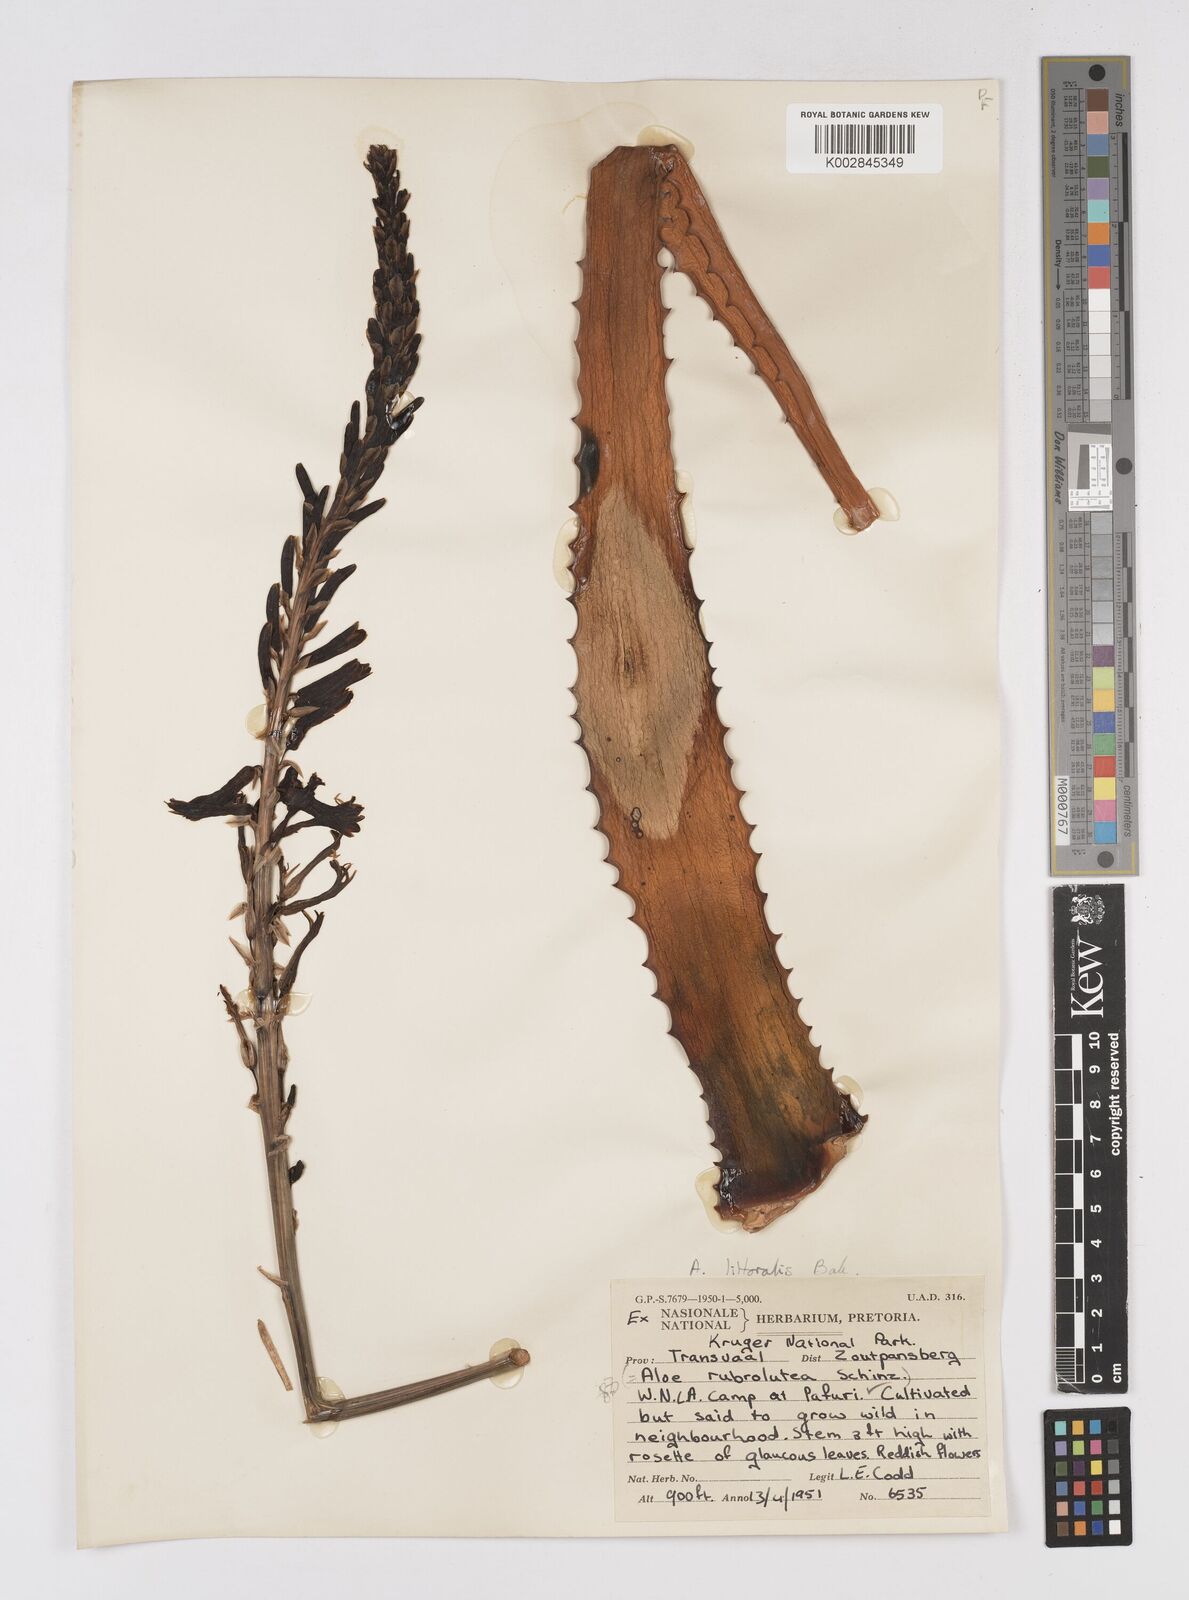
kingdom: Plantae
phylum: Tracheophyta
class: Liliopsida
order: Asparagales
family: Asphodelaceae
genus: Aloe
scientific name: Aloe littoralis
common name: Luanda tree aloe
